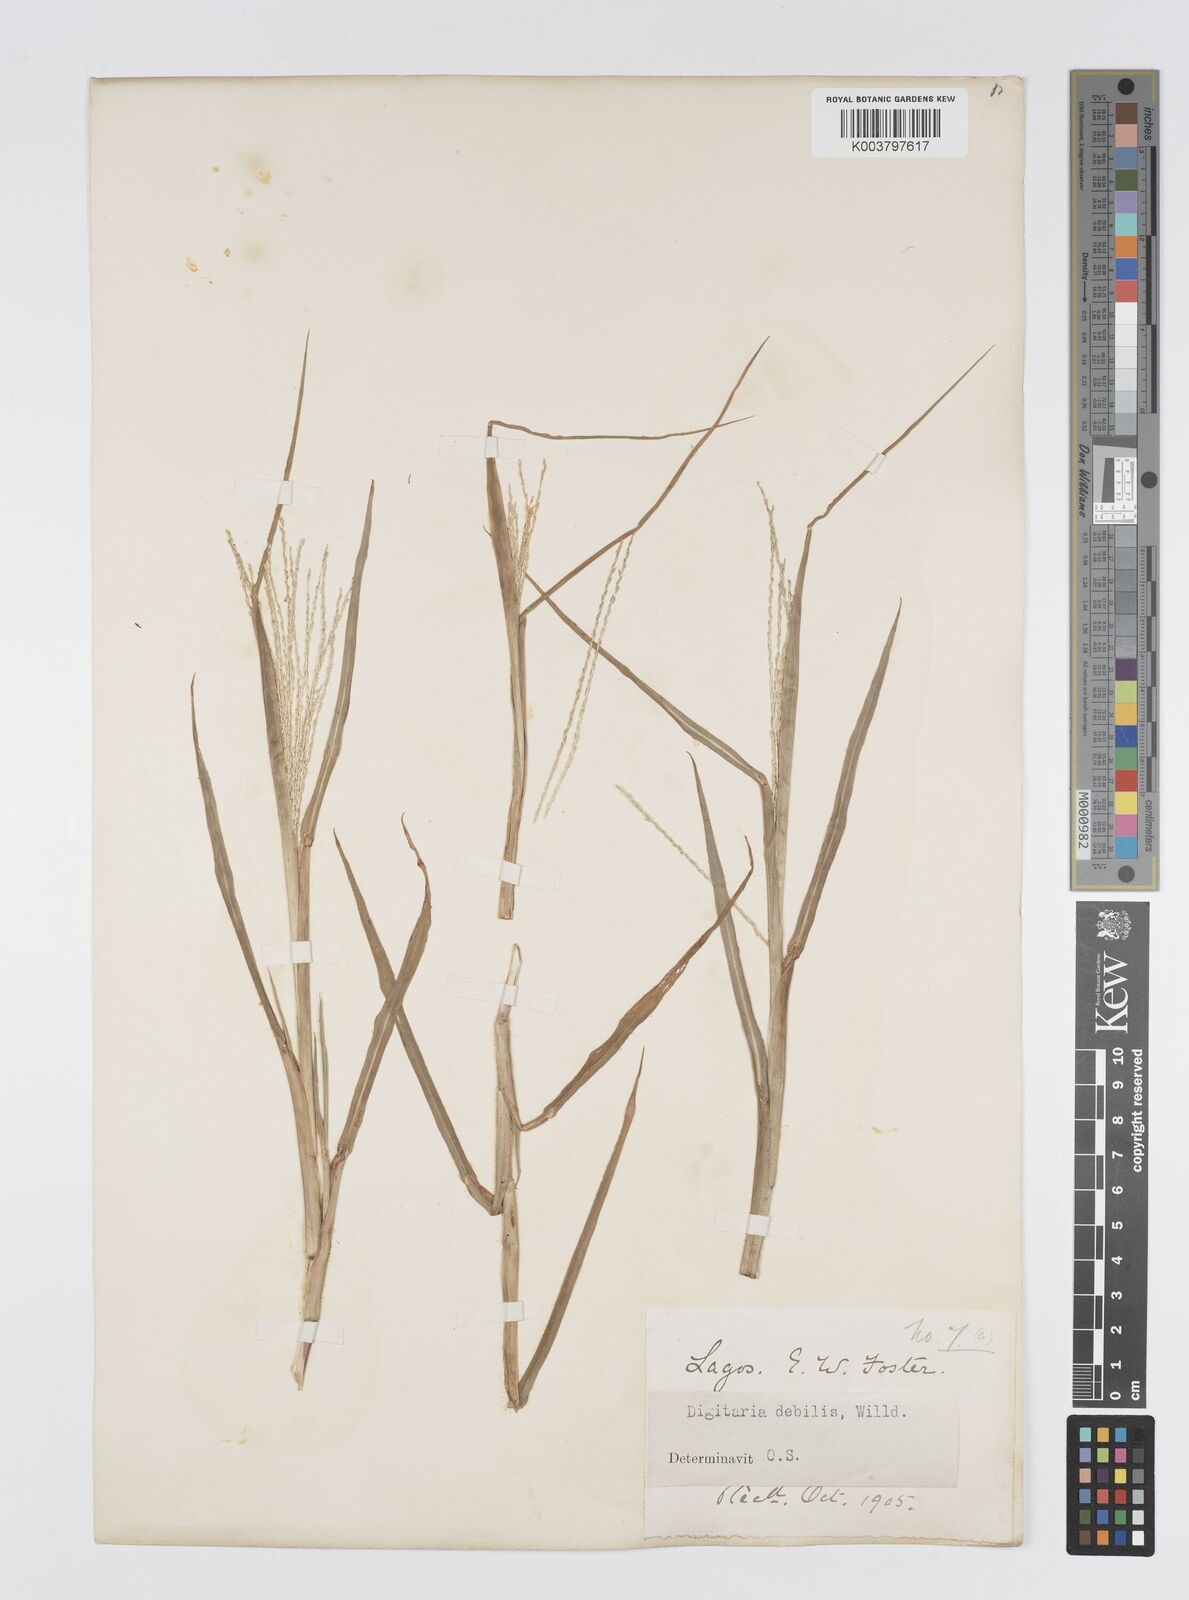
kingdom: Plantae
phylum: Tracheophyta
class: Liliopsida
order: Poales
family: Poaceae
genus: Digitaria
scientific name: Digitaria debilis
